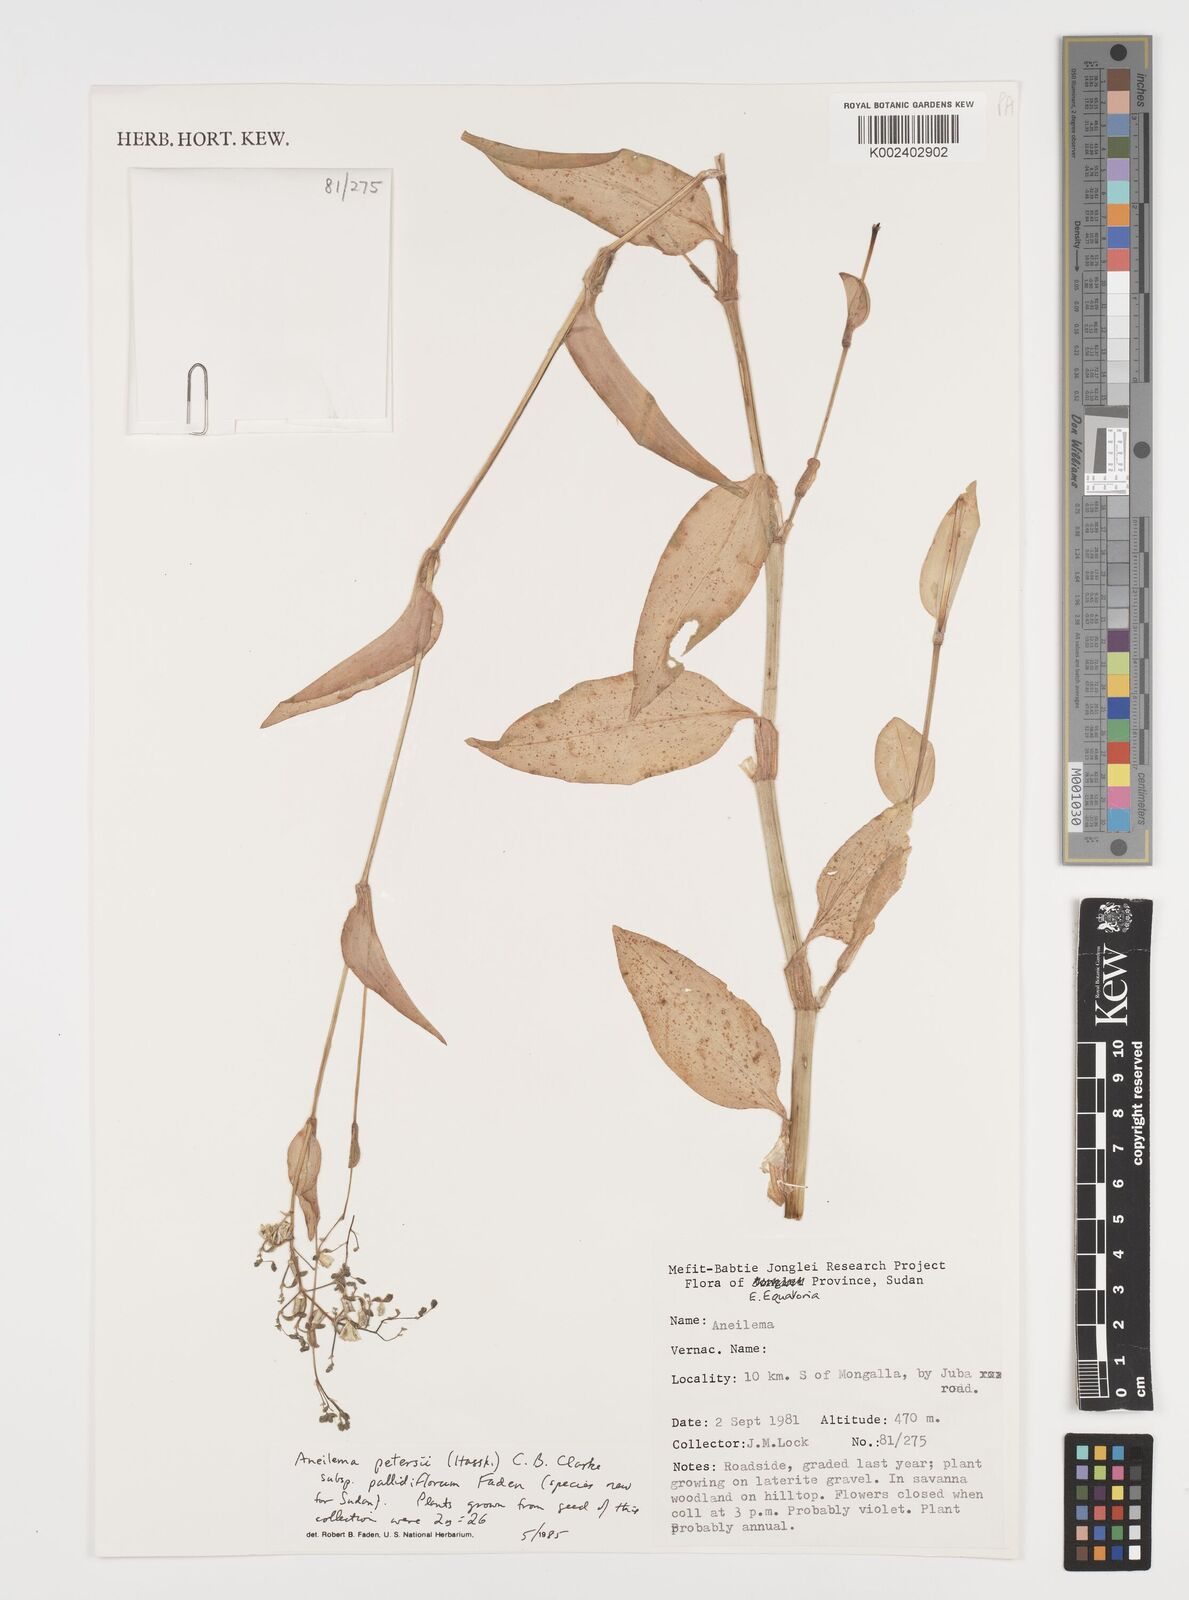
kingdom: Plantae
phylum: Tracheophyta
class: Liliopsida
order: Commelinales
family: Commelinaceae
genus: Aneilema
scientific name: Aneilema petersii
